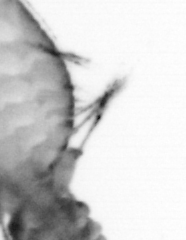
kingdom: Animalia
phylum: Annelida
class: Polychaeta
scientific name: Polychaeta
